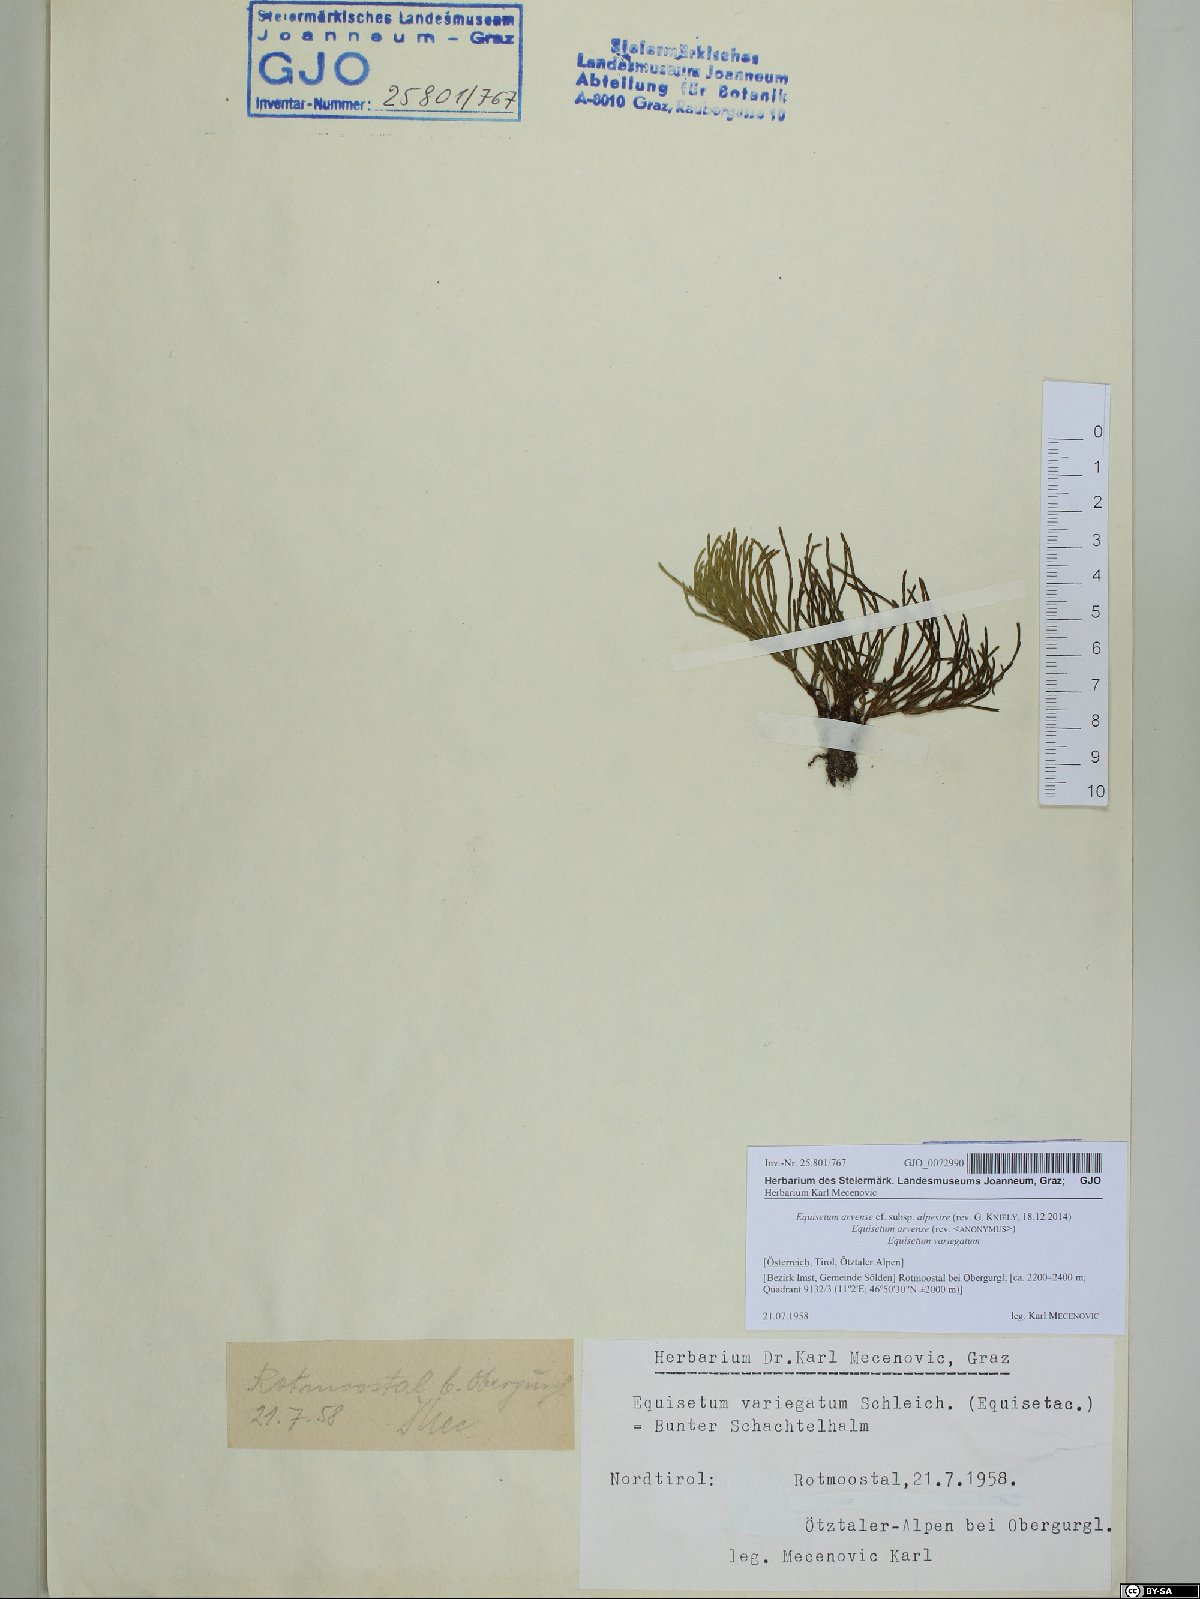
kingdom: Plantae
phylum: Tracheophyta
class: Polypodiopsida
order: Equisetales
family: Equisetaceae
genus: Equisetum
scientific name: Equisetum arvense
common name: Field horsetail
